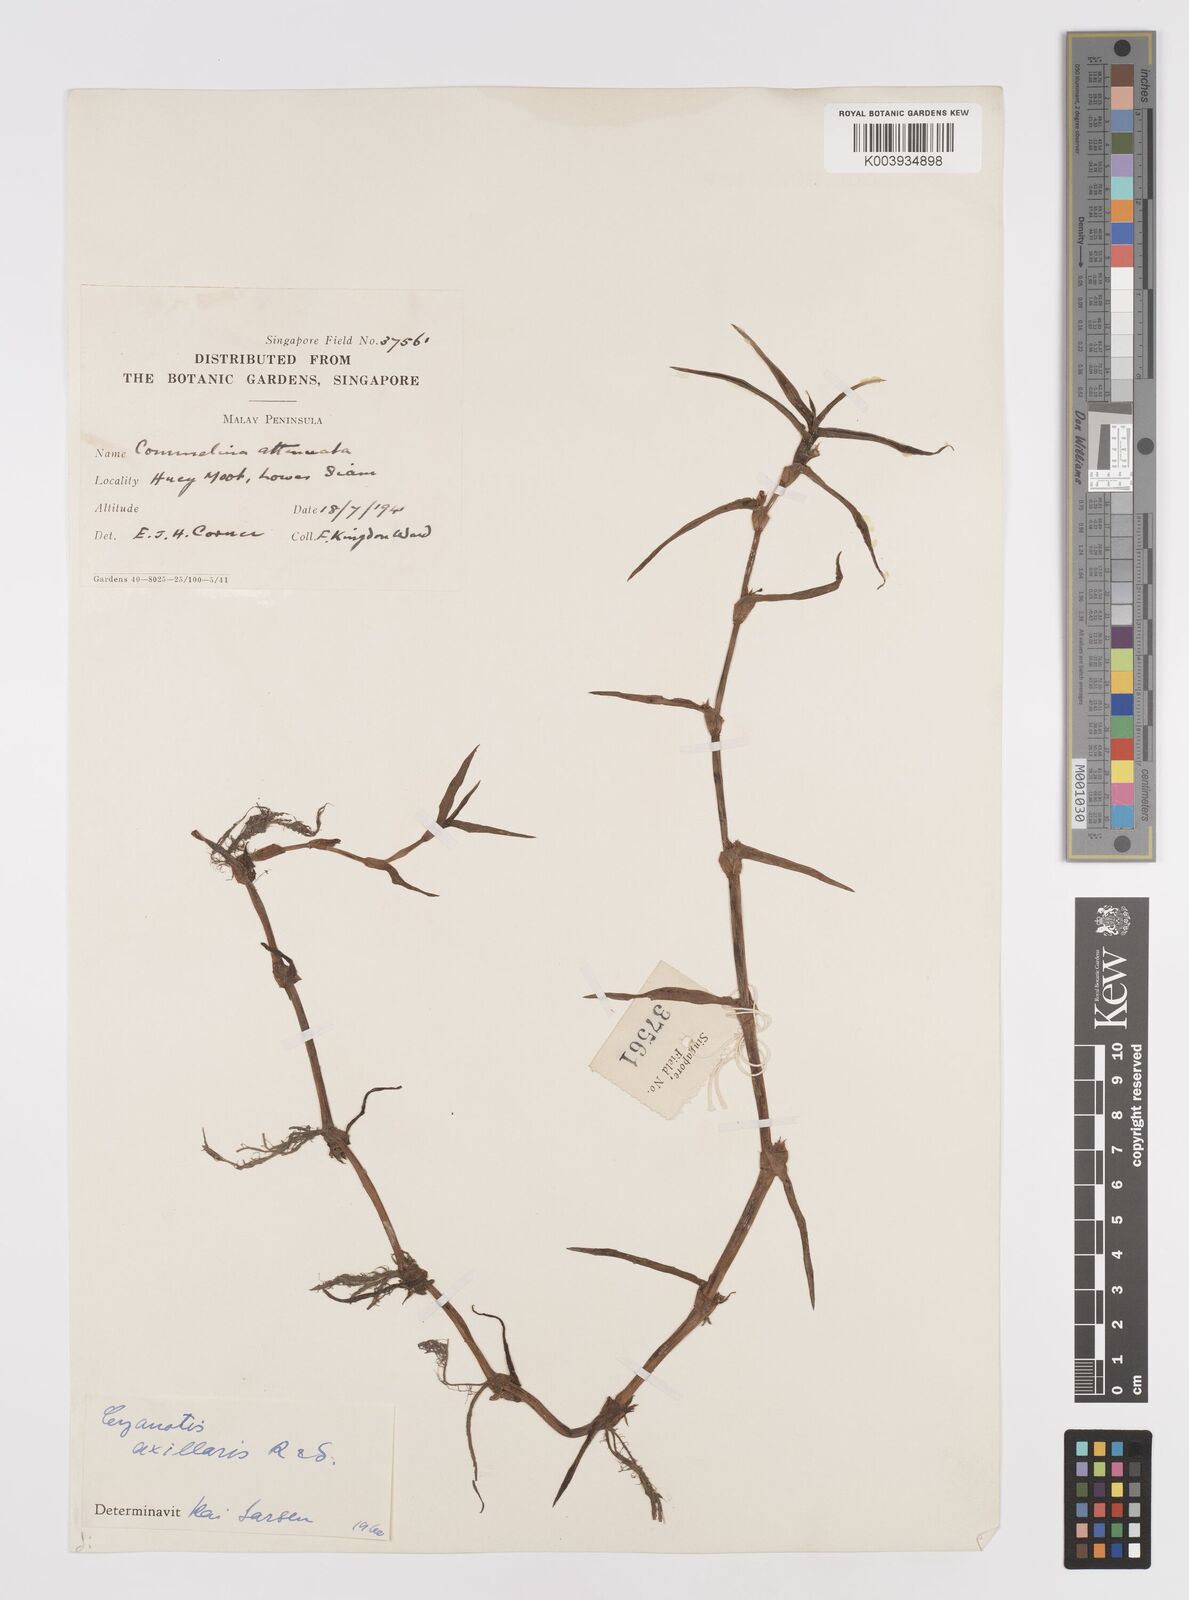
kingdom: Plantae
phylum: Tracheophyta
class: Liliopsida
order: Commelinales
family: Commelinaceae
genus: Cyanotis
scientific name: Cyanotis axillaris
